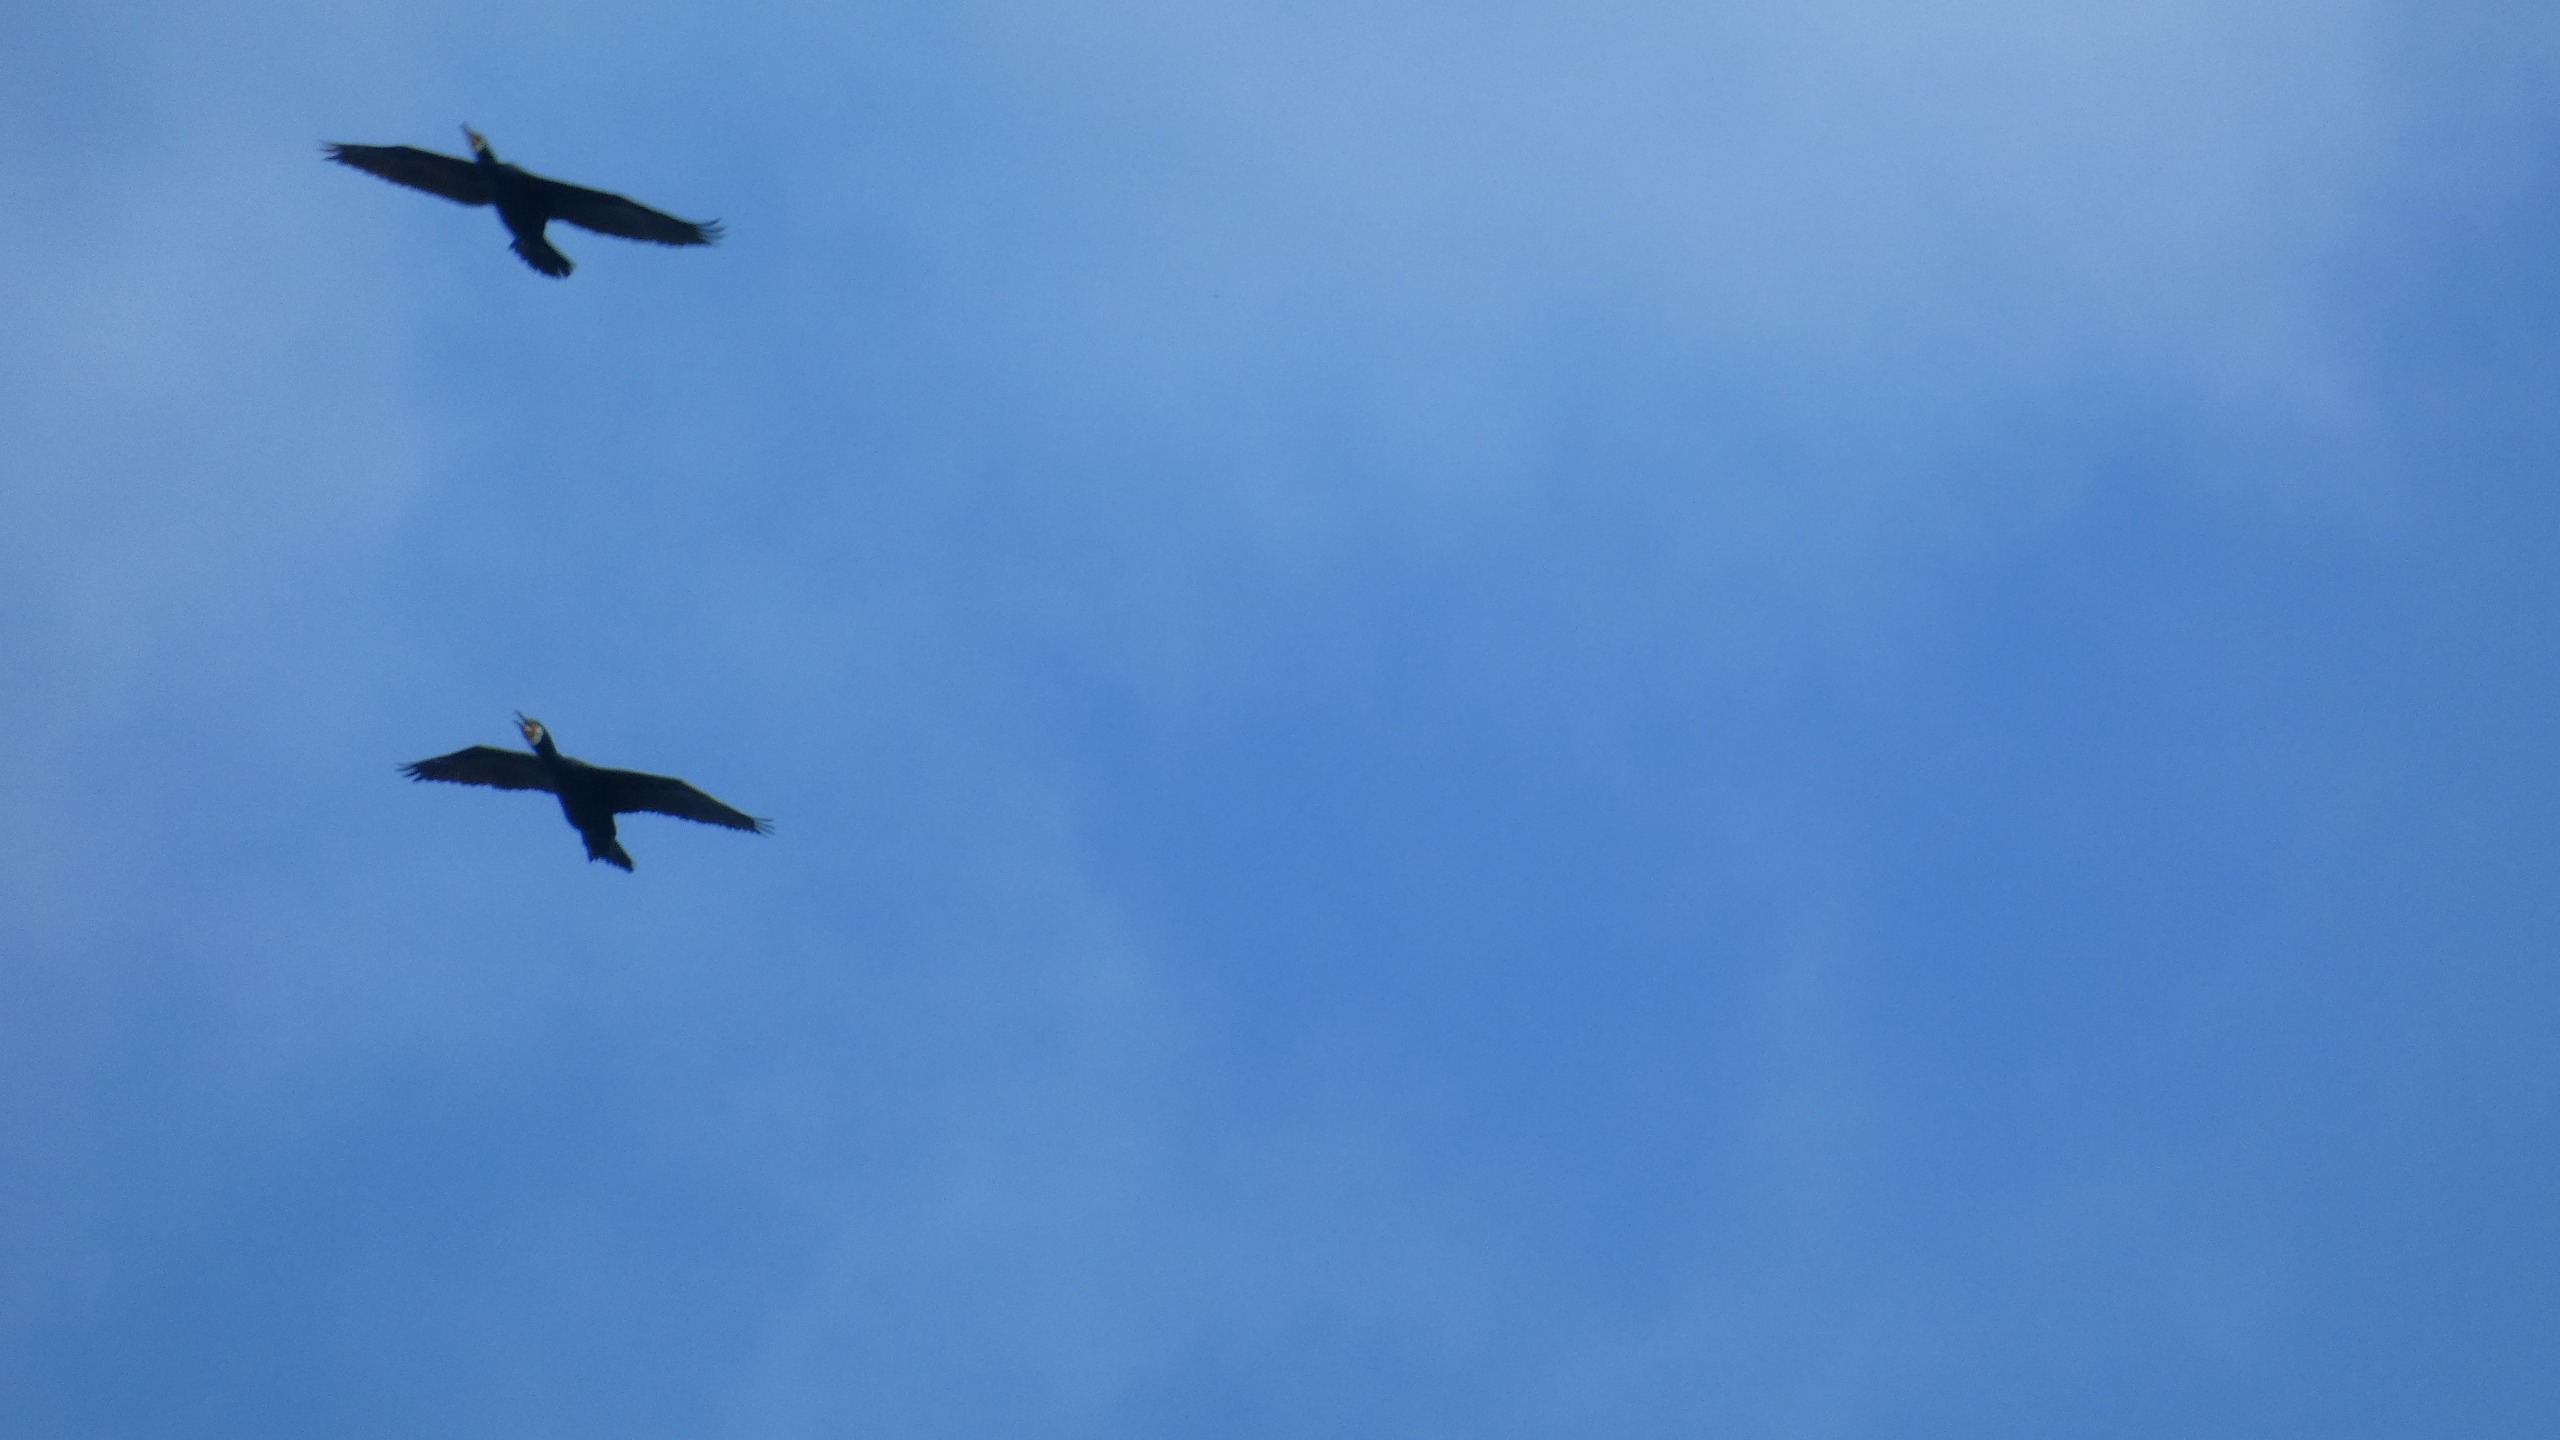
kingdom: Animalia
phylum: Chordata
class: Aves
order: Suliformes
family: Phalacrocoracidae
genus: Phalacrocorax
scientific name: Phalacrocorax carbo
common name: Skarv
